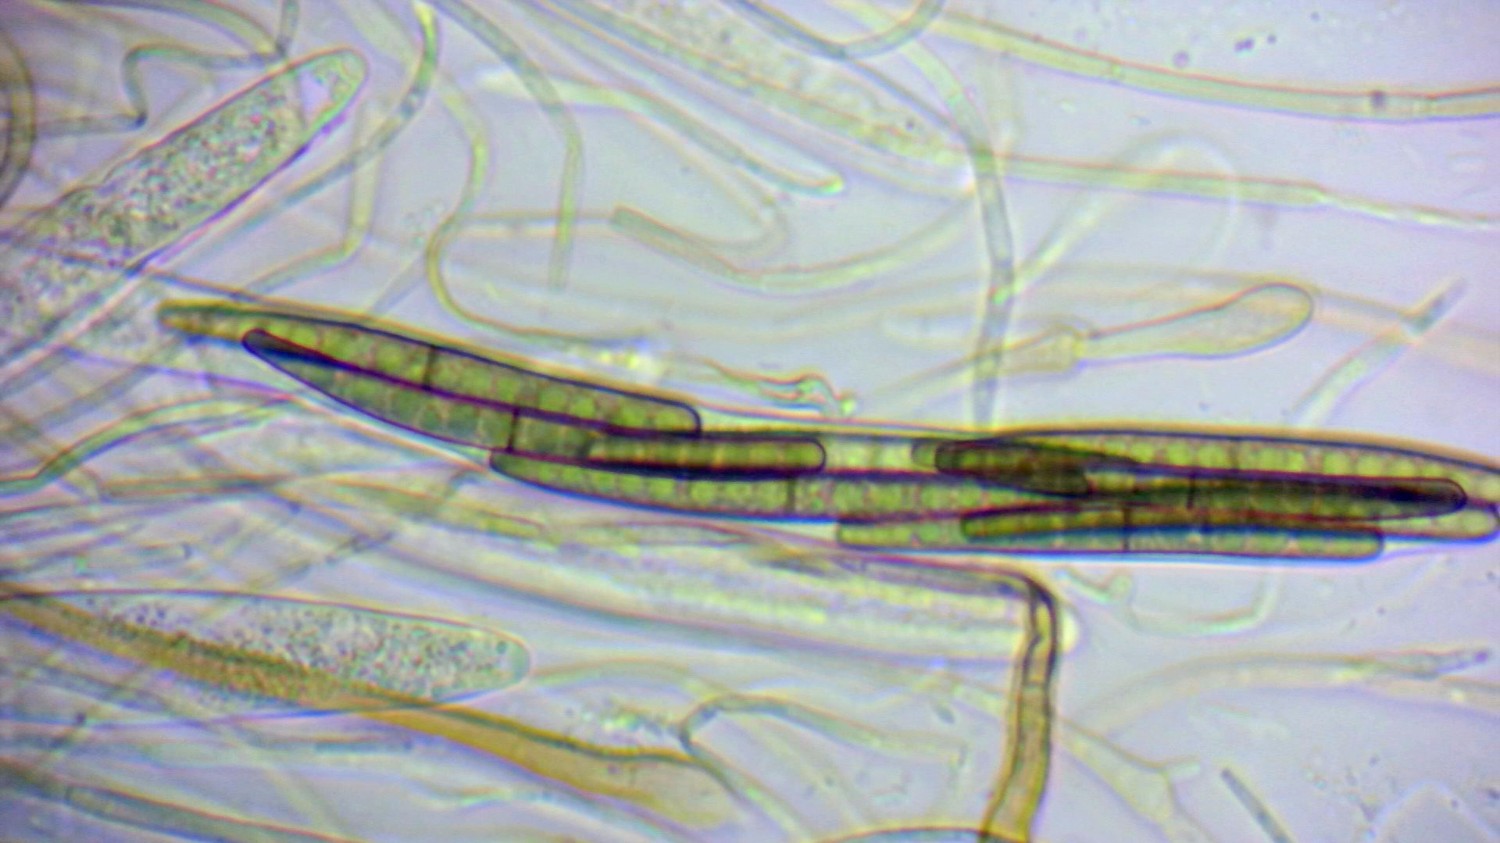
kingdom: Fungi
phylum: Ascomycota
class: Geoglossomycetes
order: Geoglossales
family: Geoglossaceae
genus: Glutinoglossum
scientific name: Glutinoglossum glutinosum
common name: slimet jordtunge
